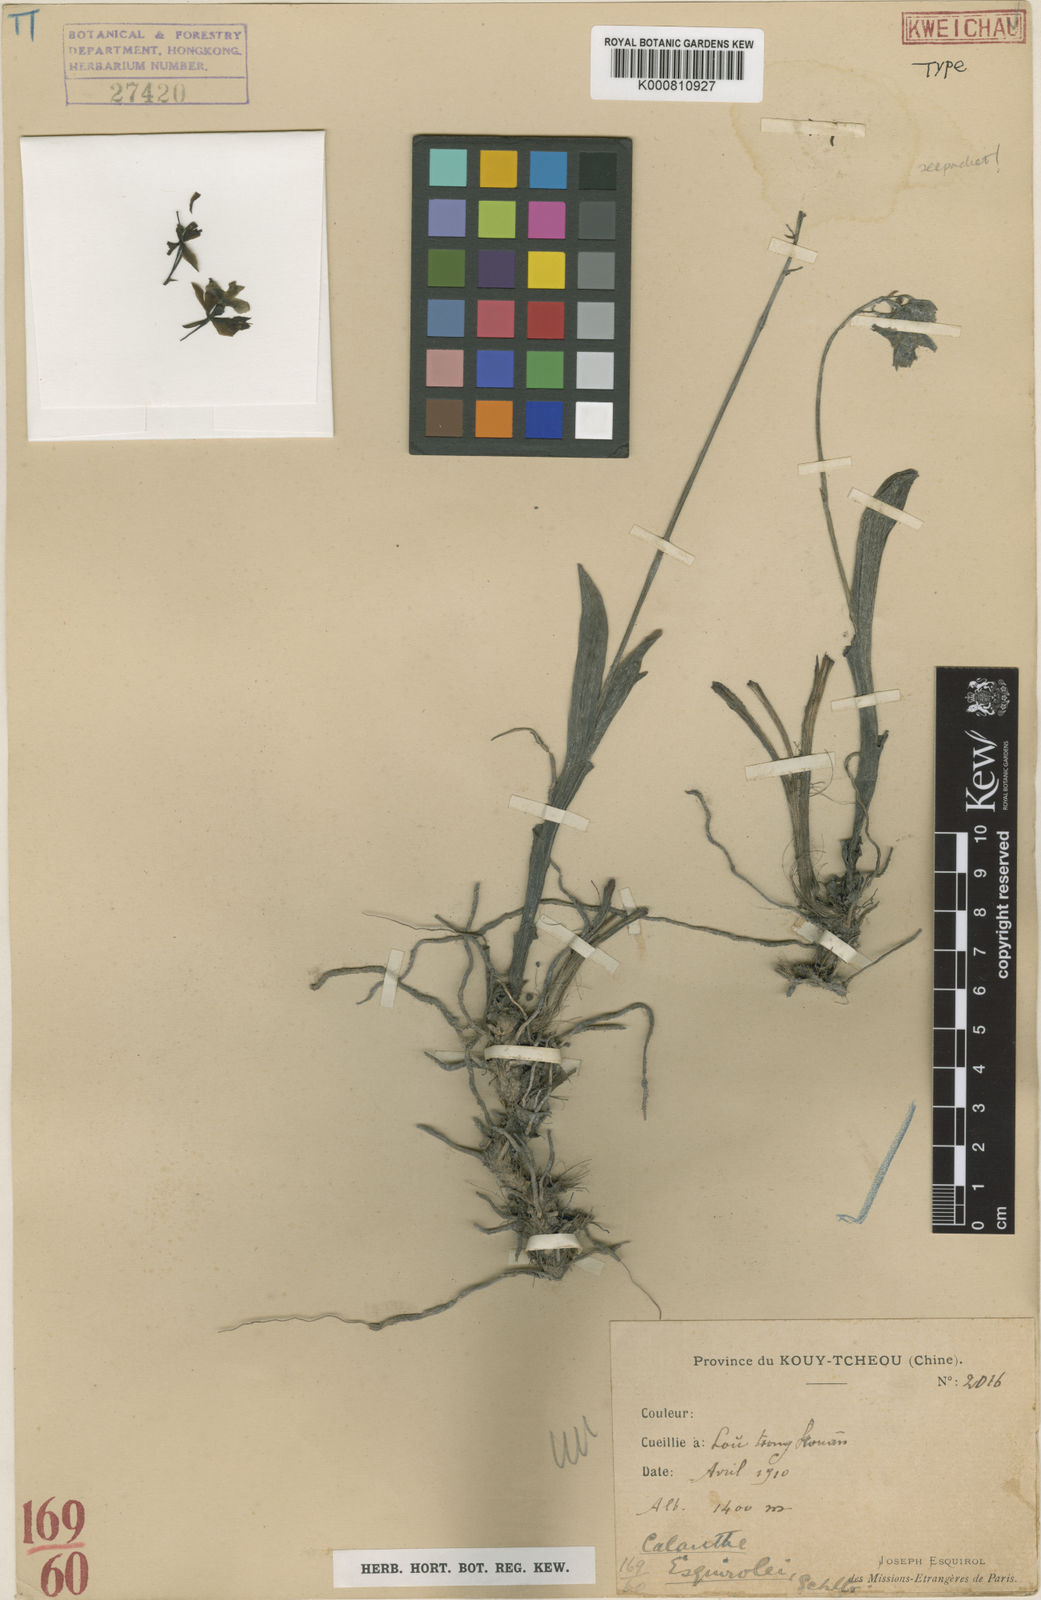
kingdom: Plantae
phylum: Tracheophyta
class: Liliopsida
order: Asparagales
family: Orchidaceae
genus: Calanthe
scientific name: Calanthe discolor
